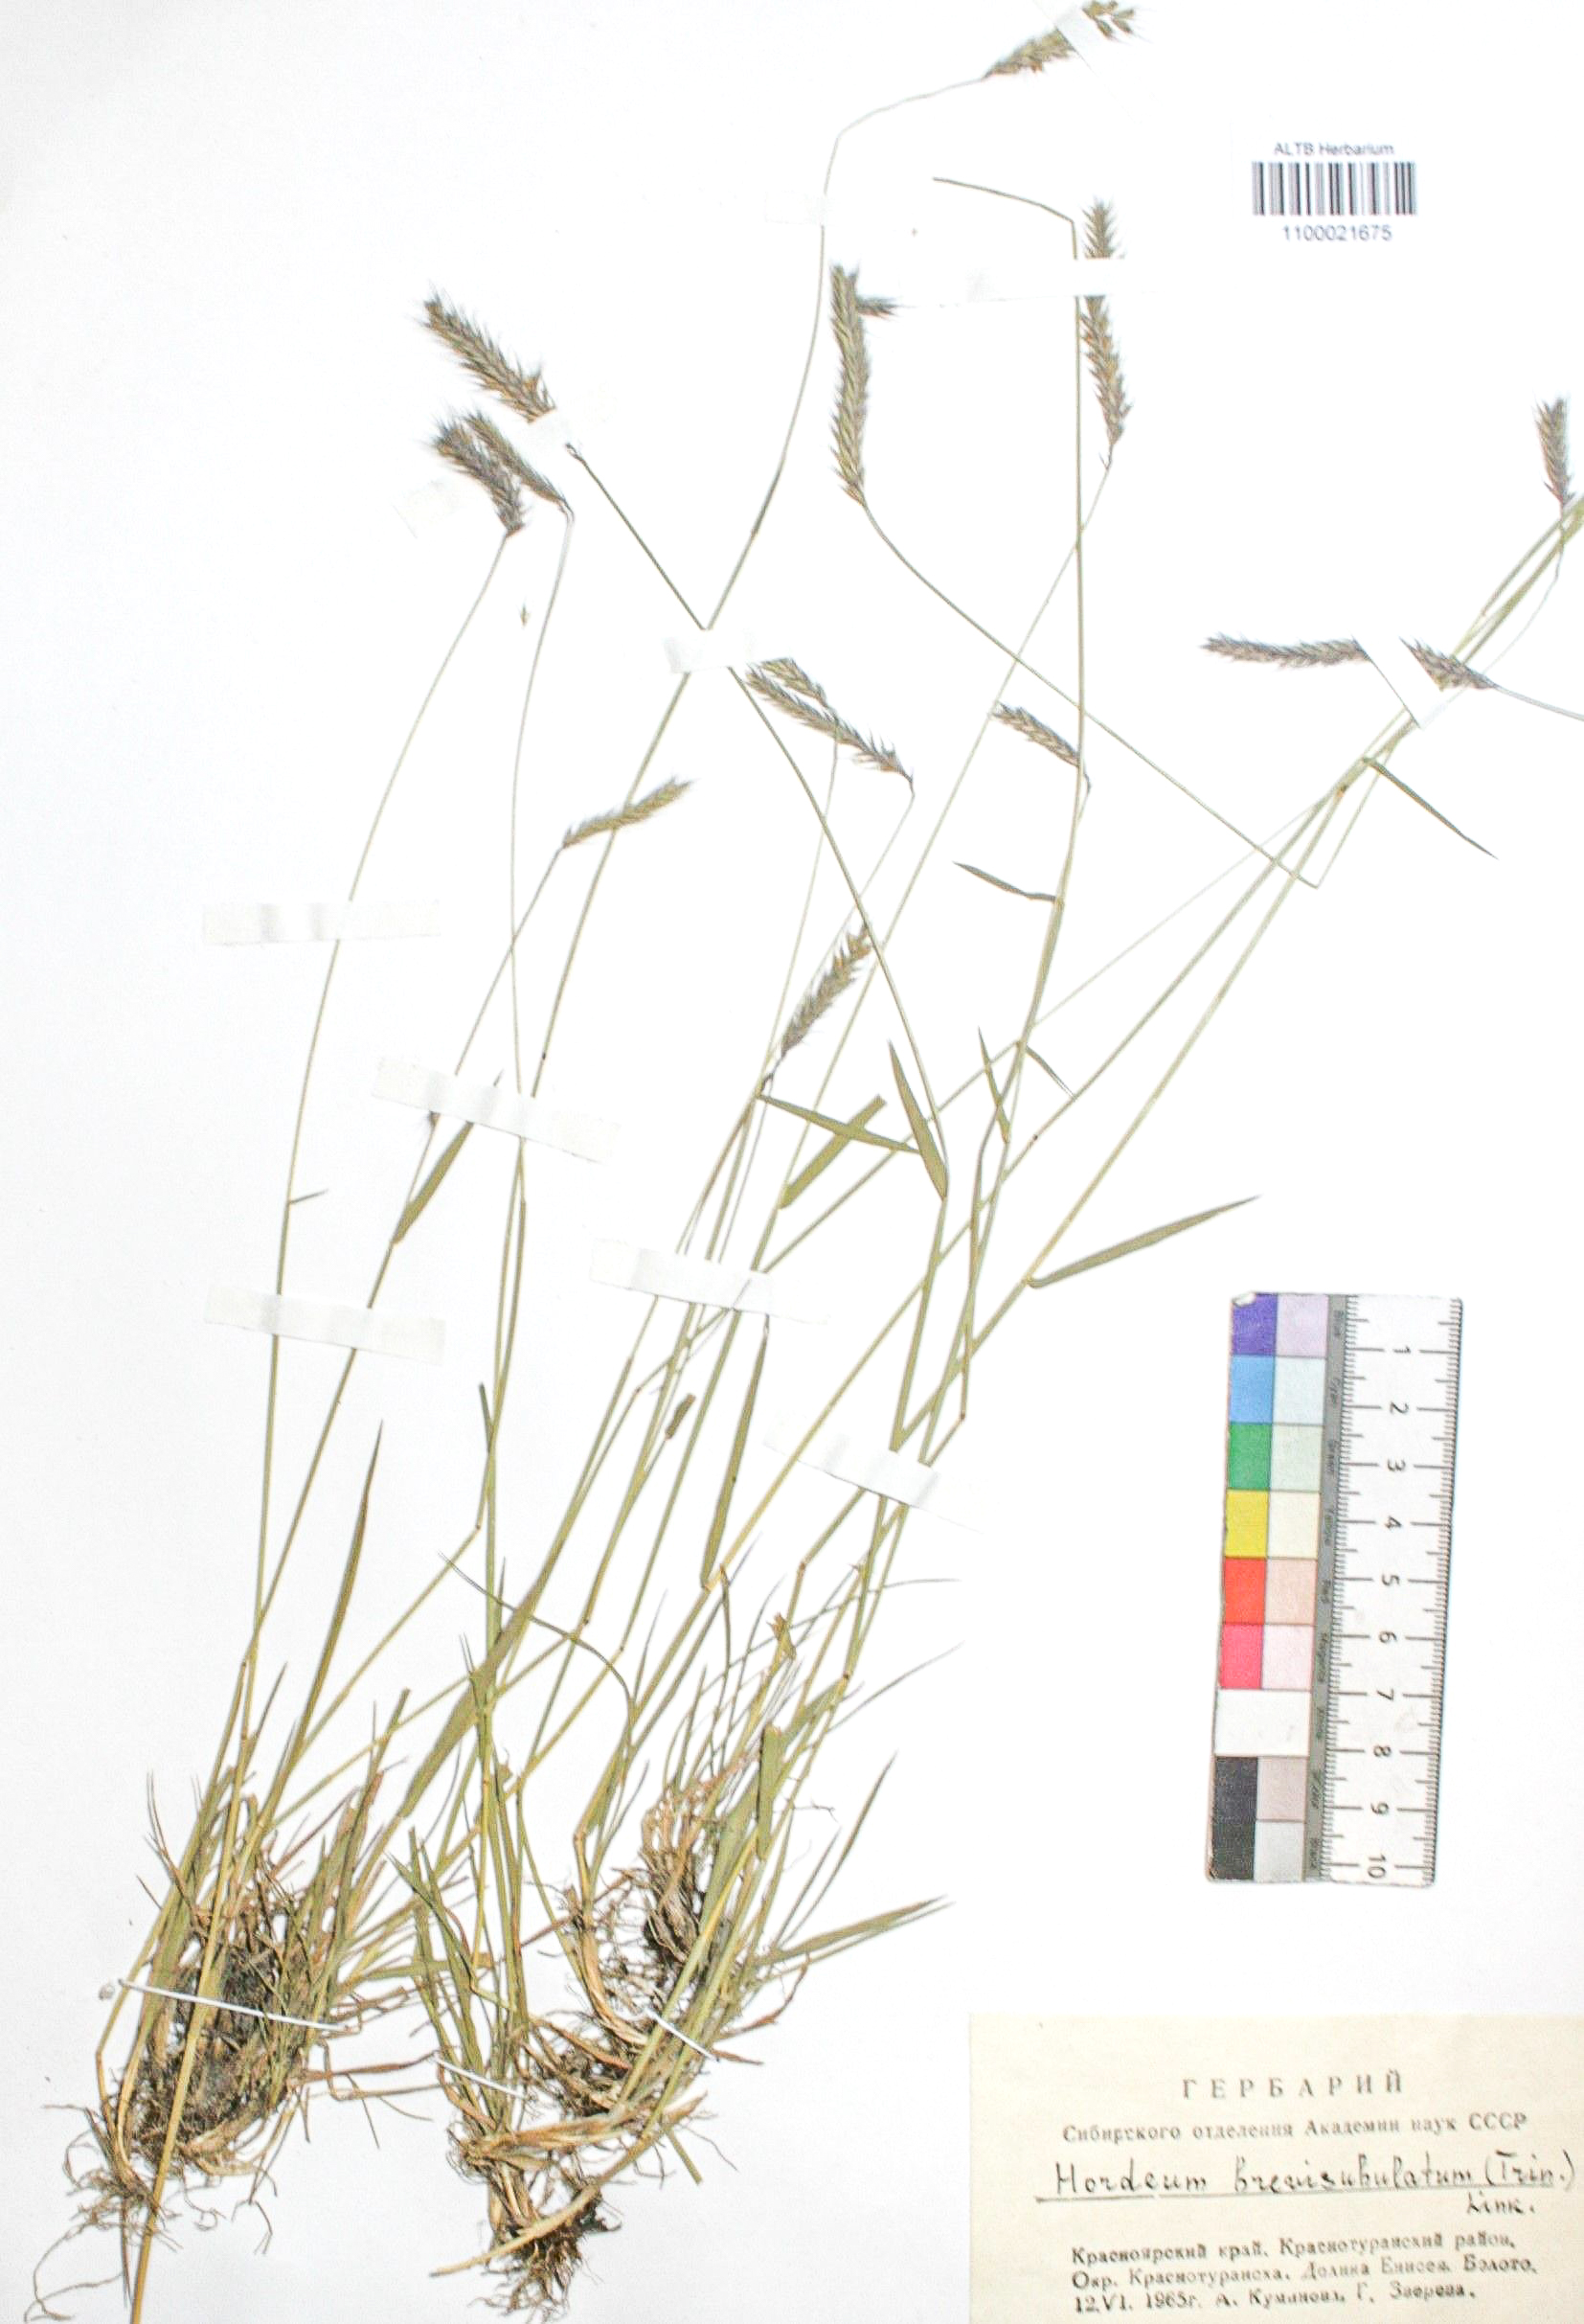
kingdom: Plantae
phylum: Tracheophyta
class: Liliopsida
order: Poales
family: Poaceae
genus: Hordeum
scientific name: Hordeum brevisubulatum
